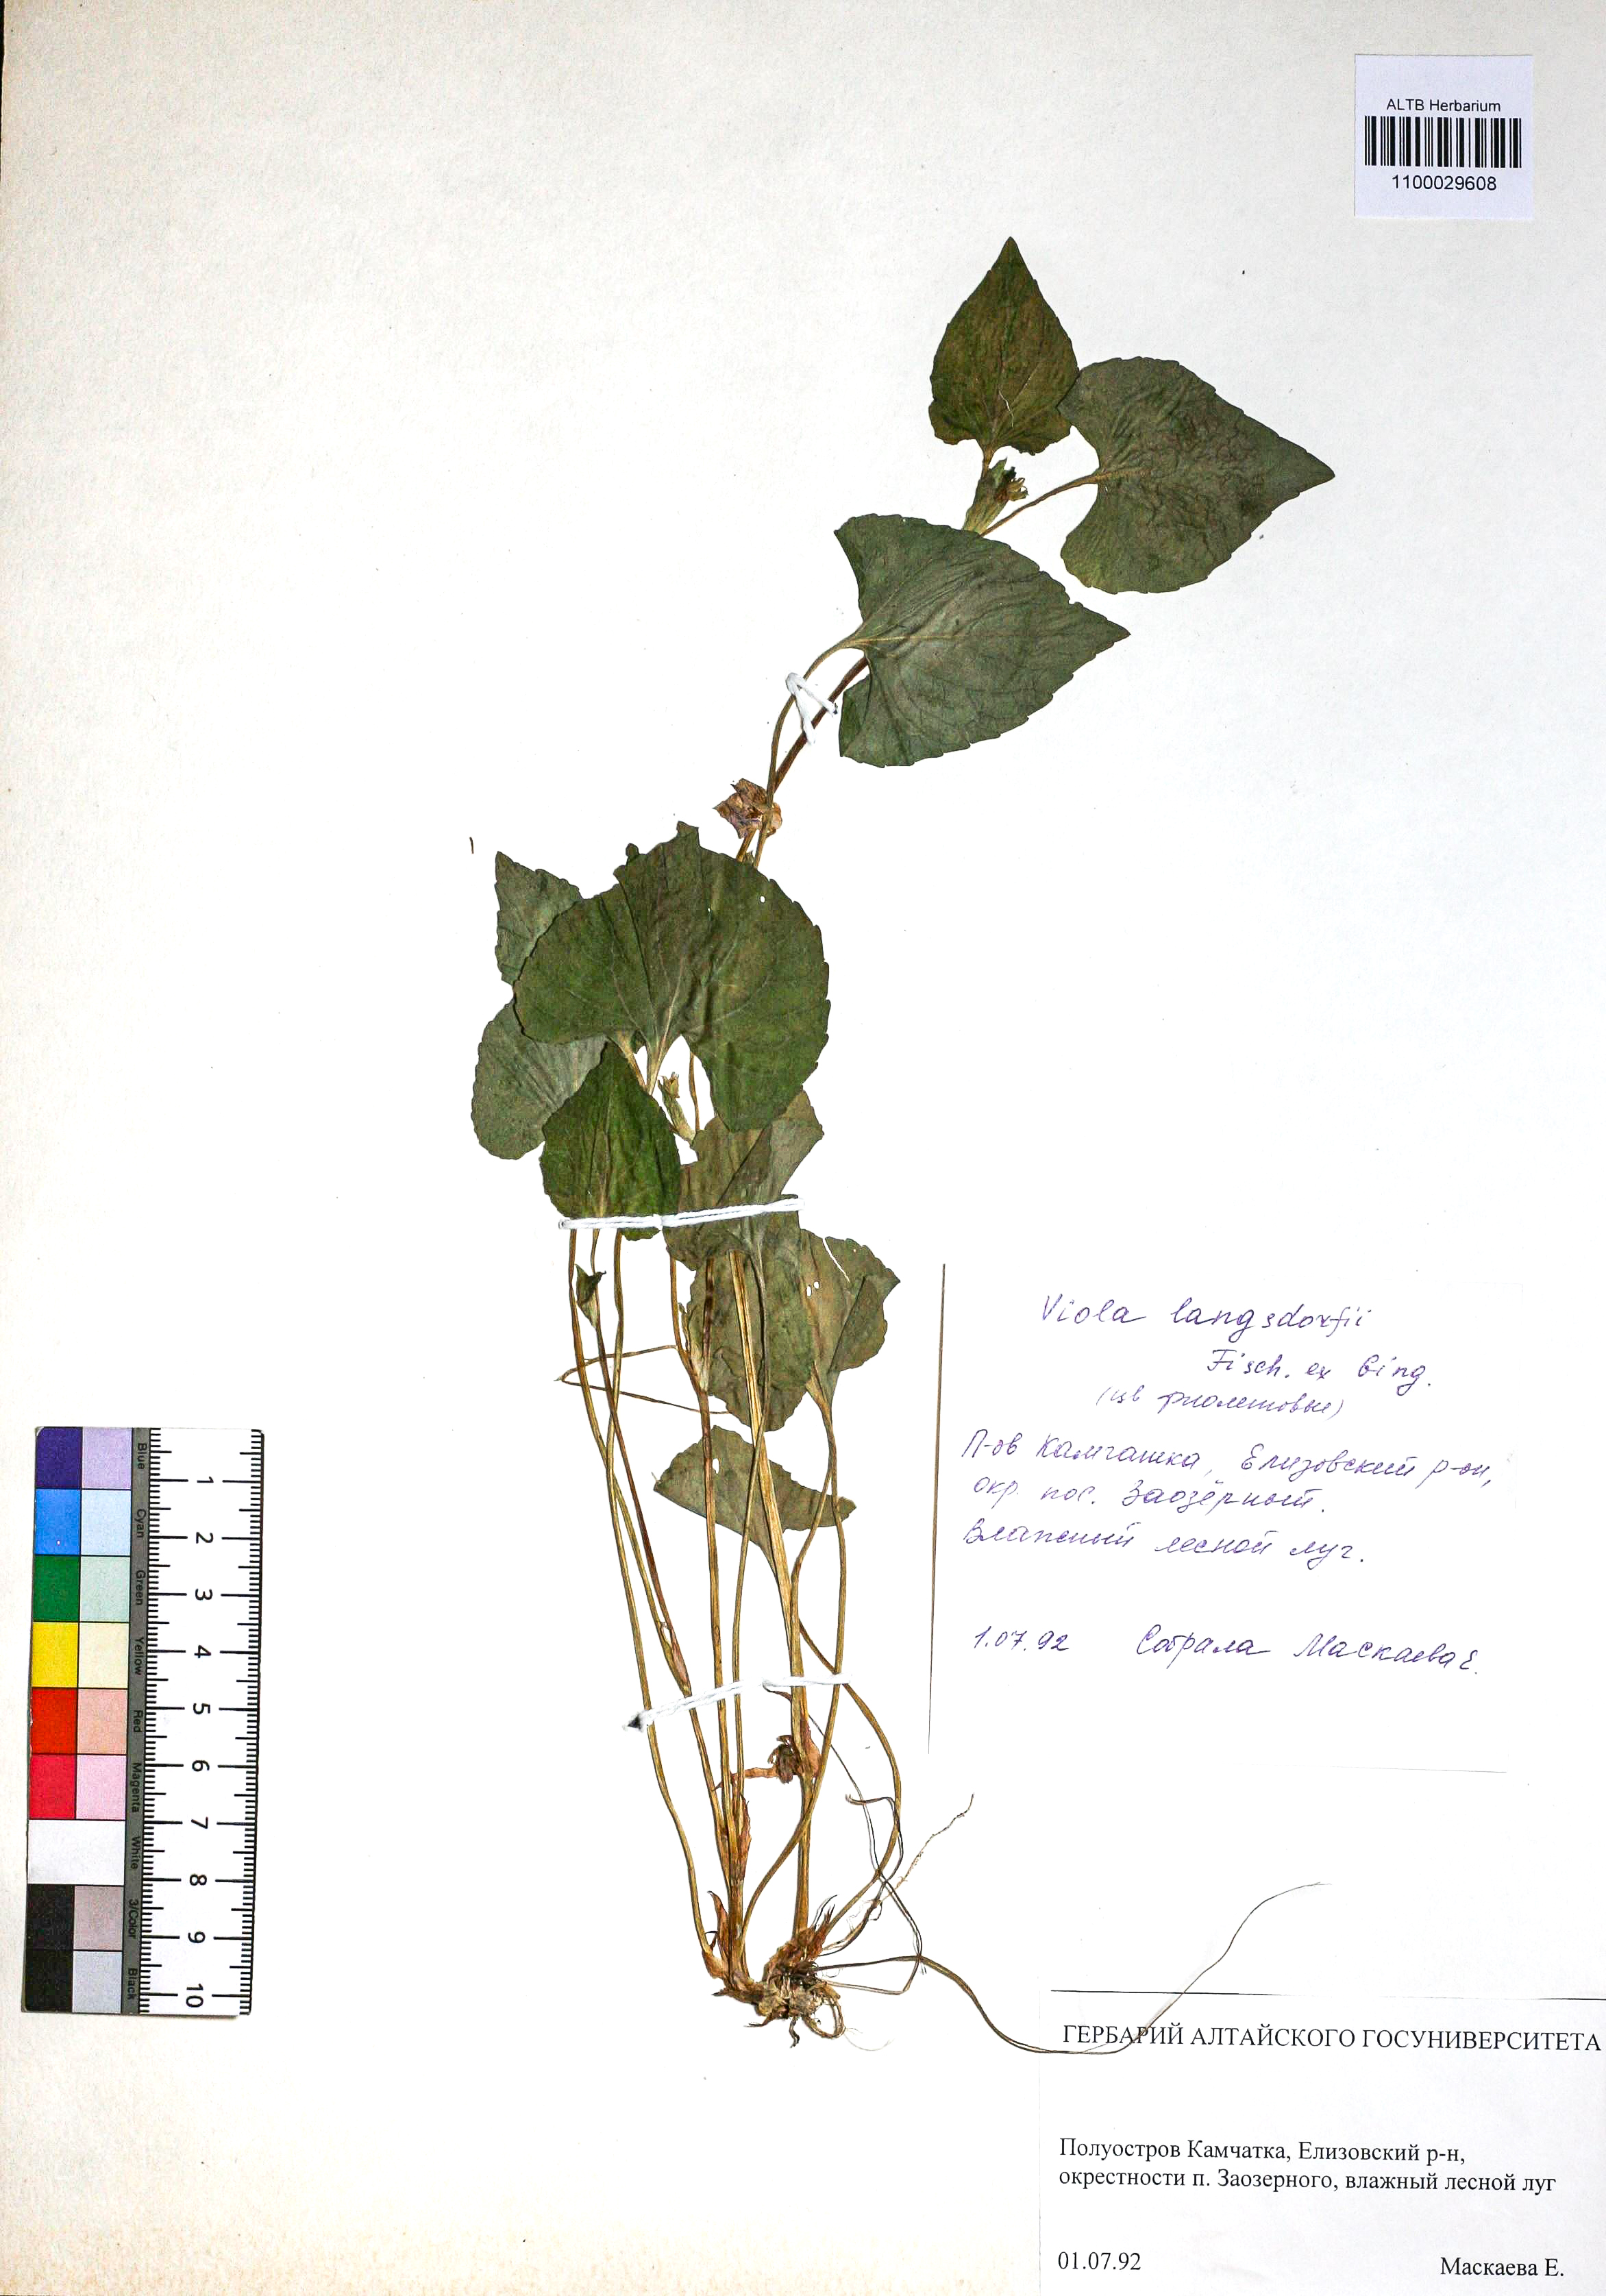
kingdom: Plantae
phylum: Tracheophyta
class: Magnoliopsida
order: Malpighiales
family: Violaceae
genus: Viola
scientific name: Viola langsdorfii
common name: Alaska violet
